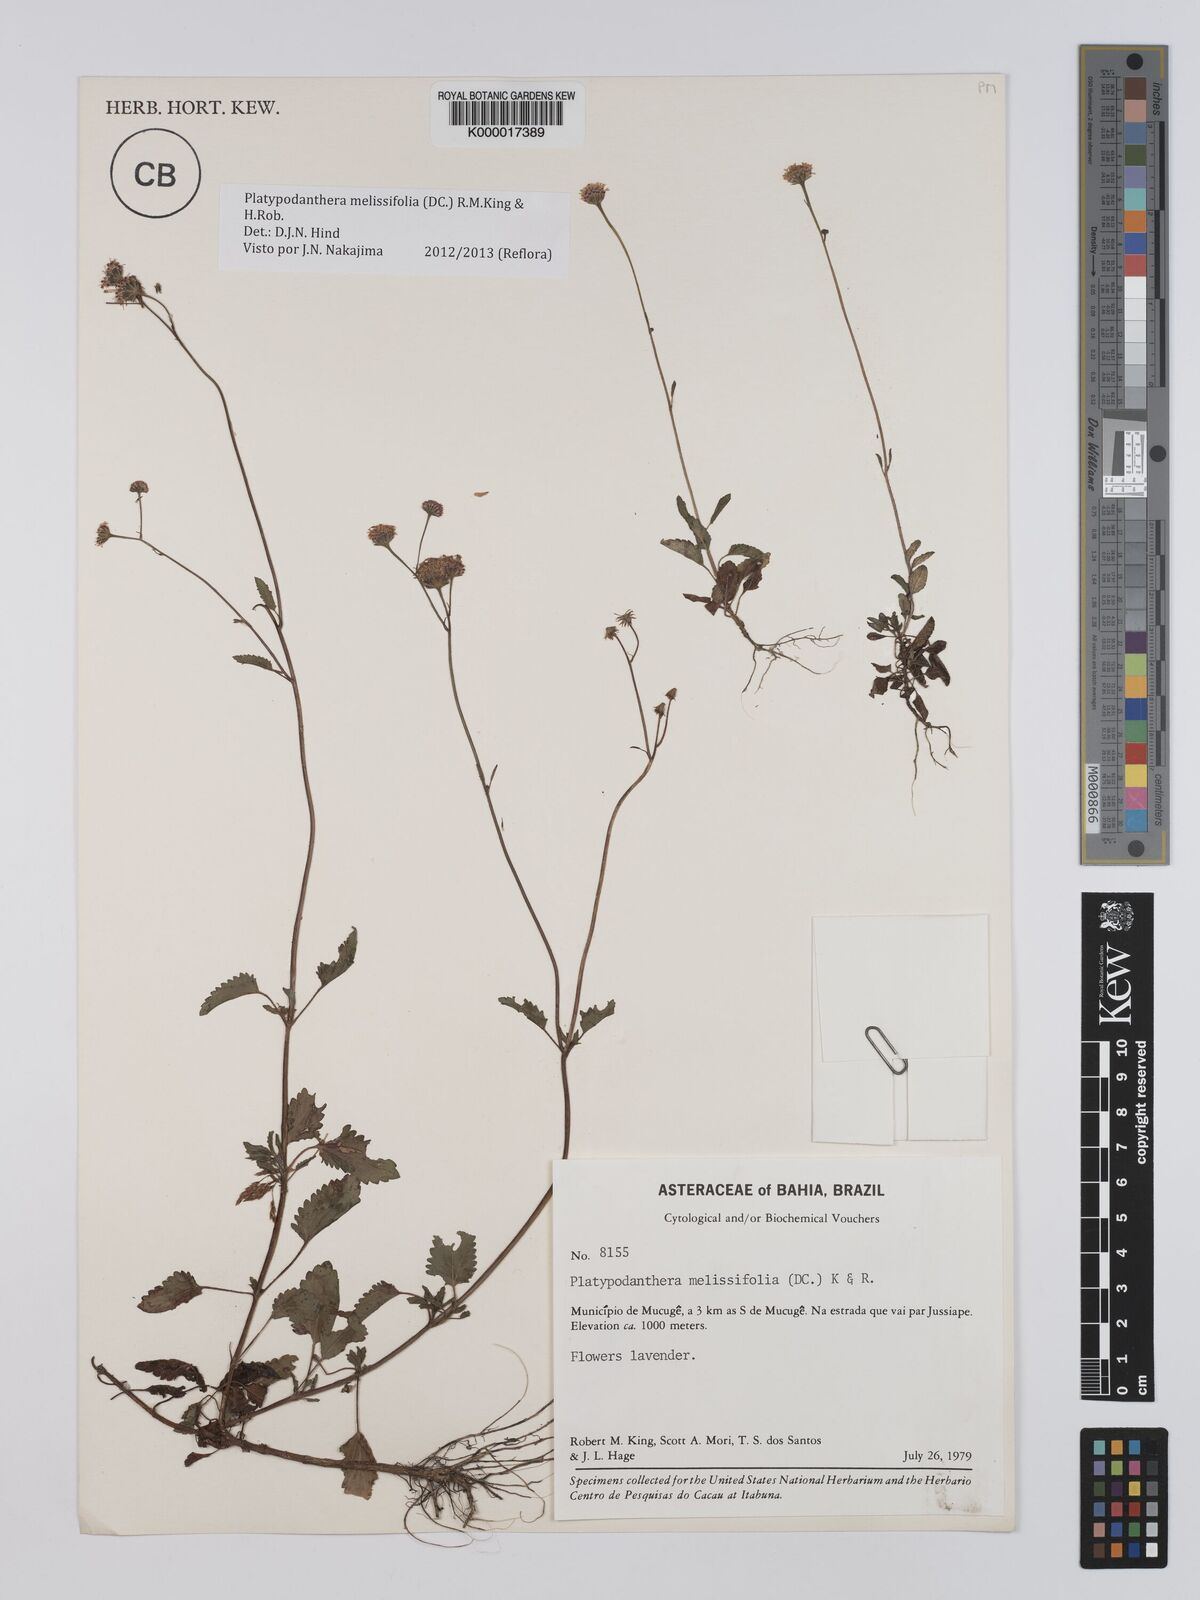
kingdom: Plantae
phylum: Tracheophyta
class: Magnoliopsida
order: Asterales
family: Asteraceae
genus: Platypodanthera
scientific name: Platypodanthera melissifolia
